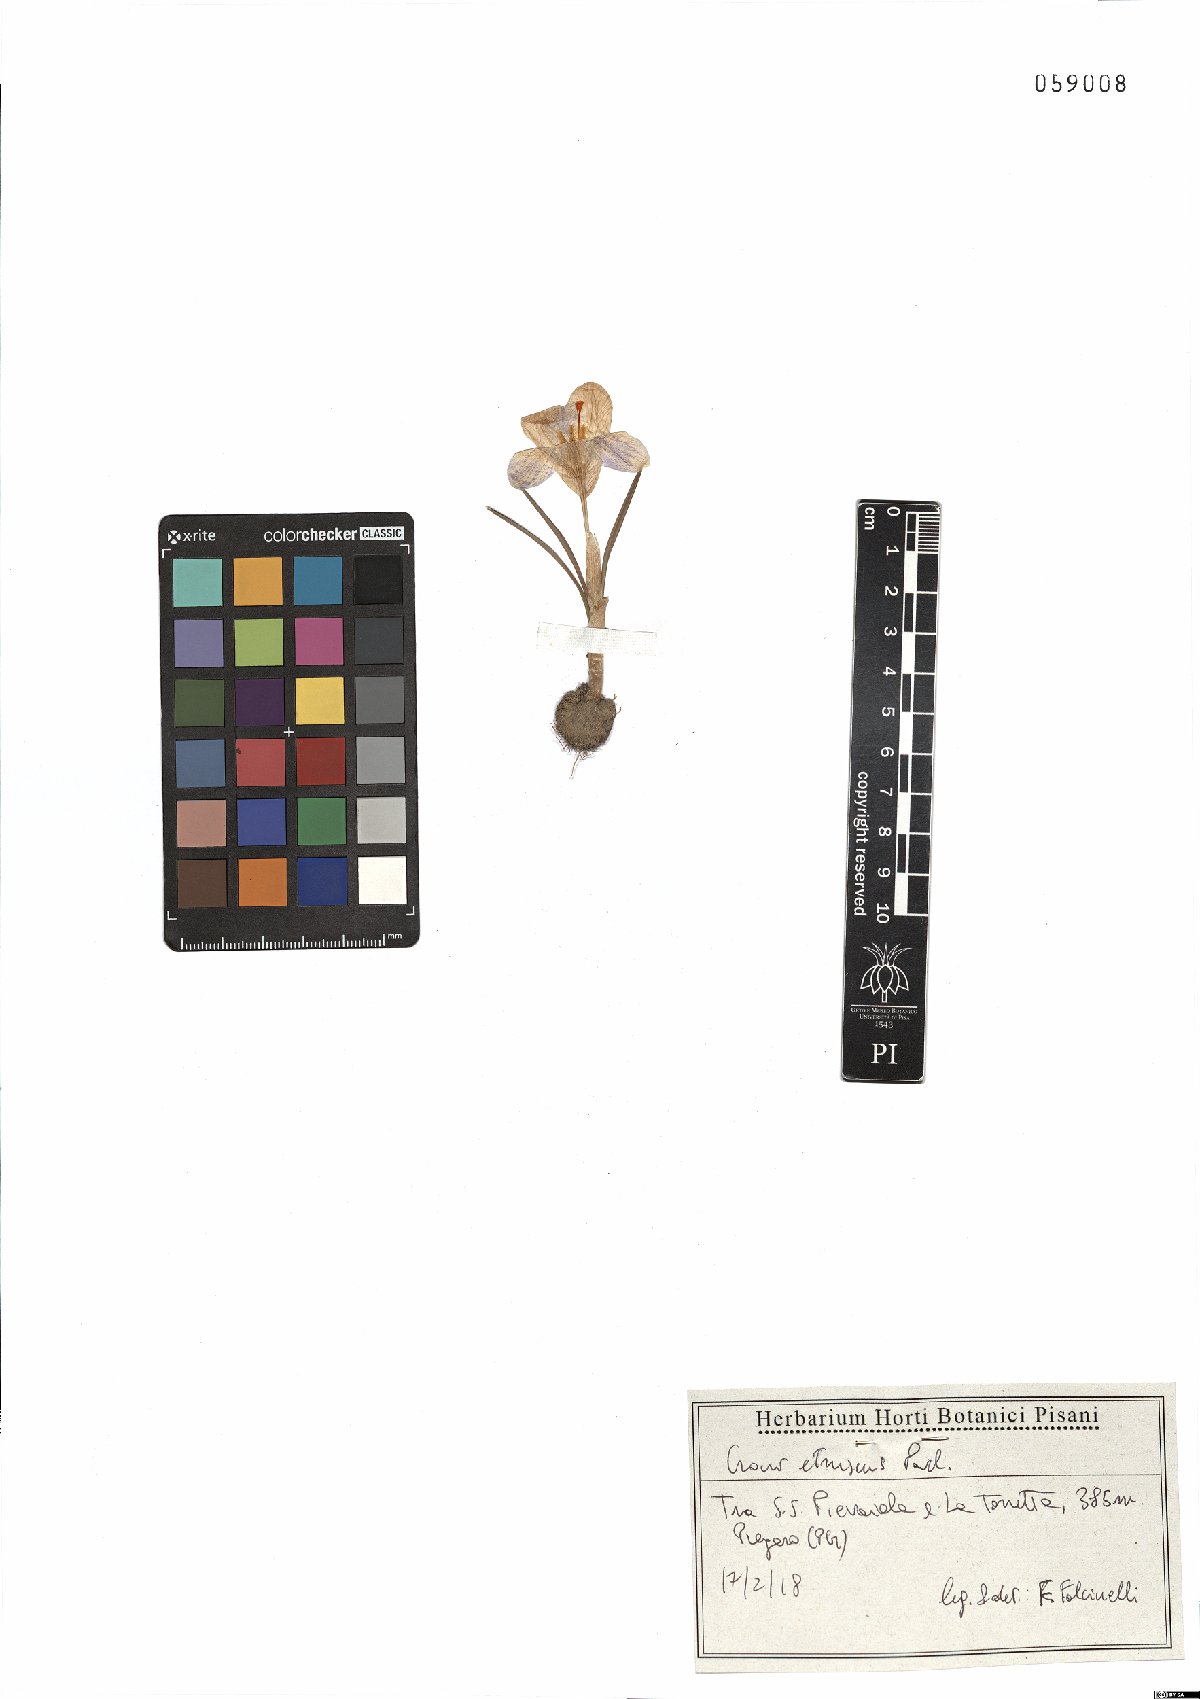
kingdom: Plantae
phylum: Tracheophyta
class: Liliopsida
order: Asparagales
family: Iridaceae
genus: Crocus
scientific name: Crocus etruscus
